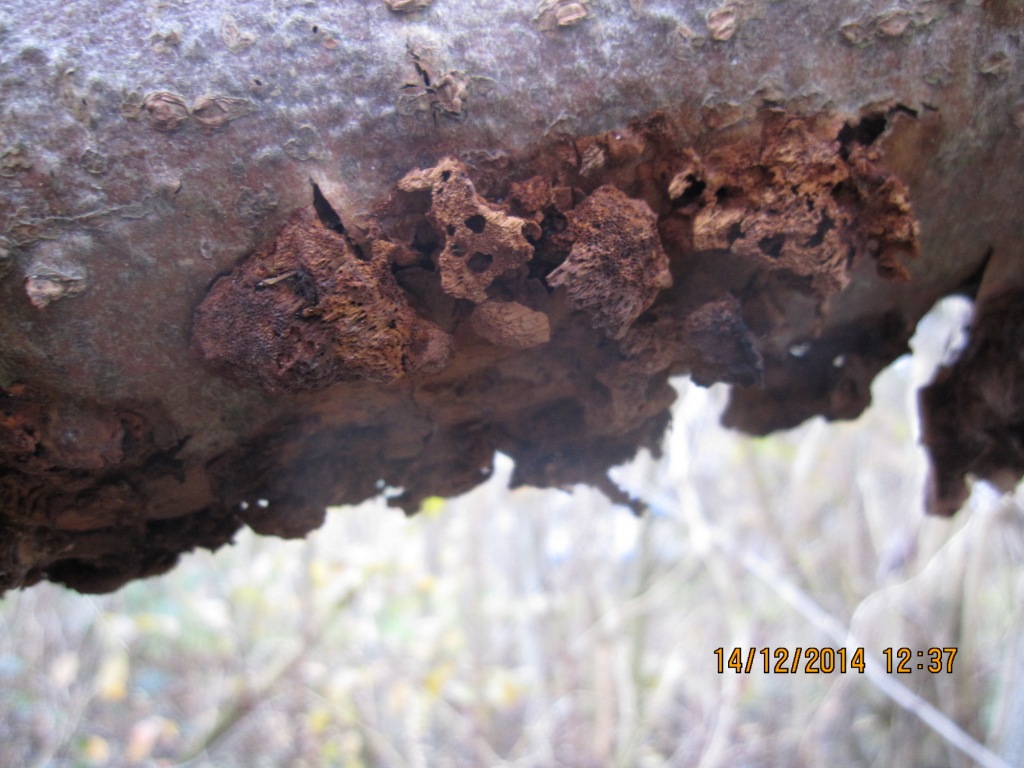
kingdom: Fungi
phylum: Basidiomycota
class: Agaricomycetes
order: Hymenochaetales
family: Hymenochaetaceae
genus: Xanthoporia
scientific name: Xanthoporia radiata
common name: elle-spejlporesvamp
